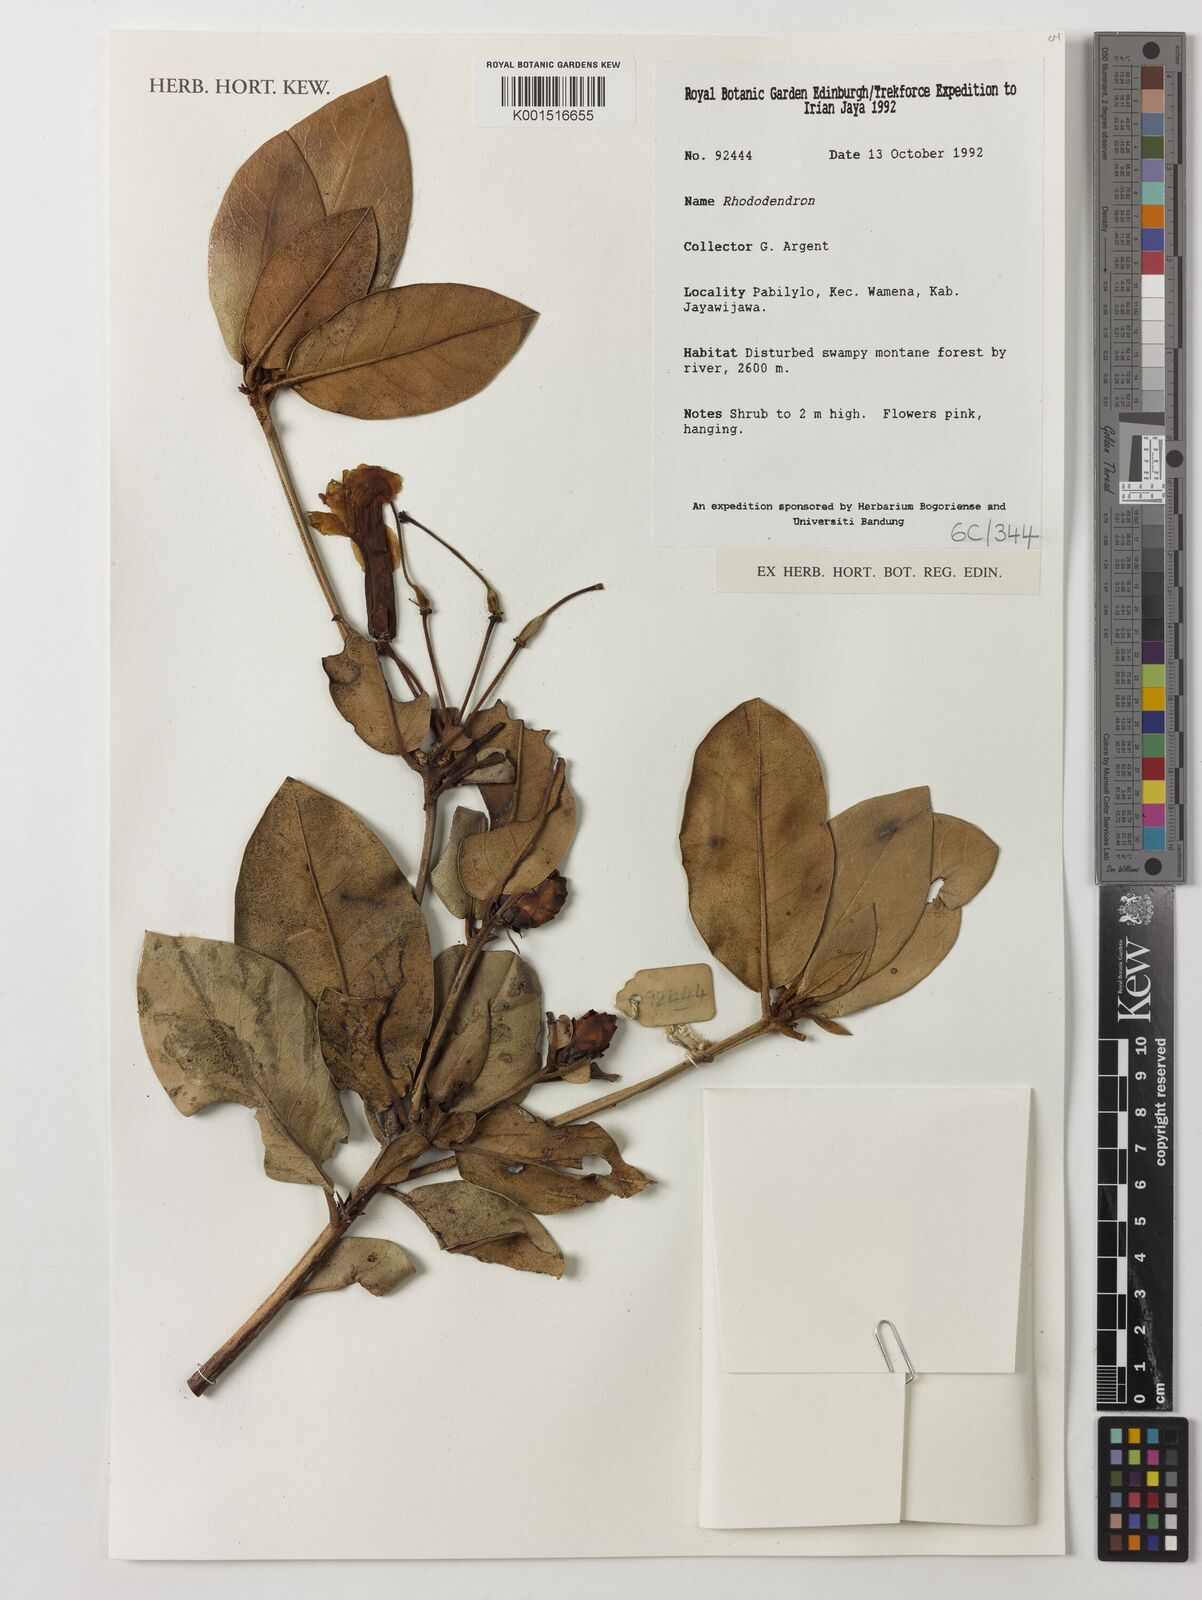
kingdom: Plantae
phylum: Tracheophyta
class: Magnoliopsida
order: Ericales
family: Ericaceae
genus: Rhododendron
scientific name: Rhododendron
